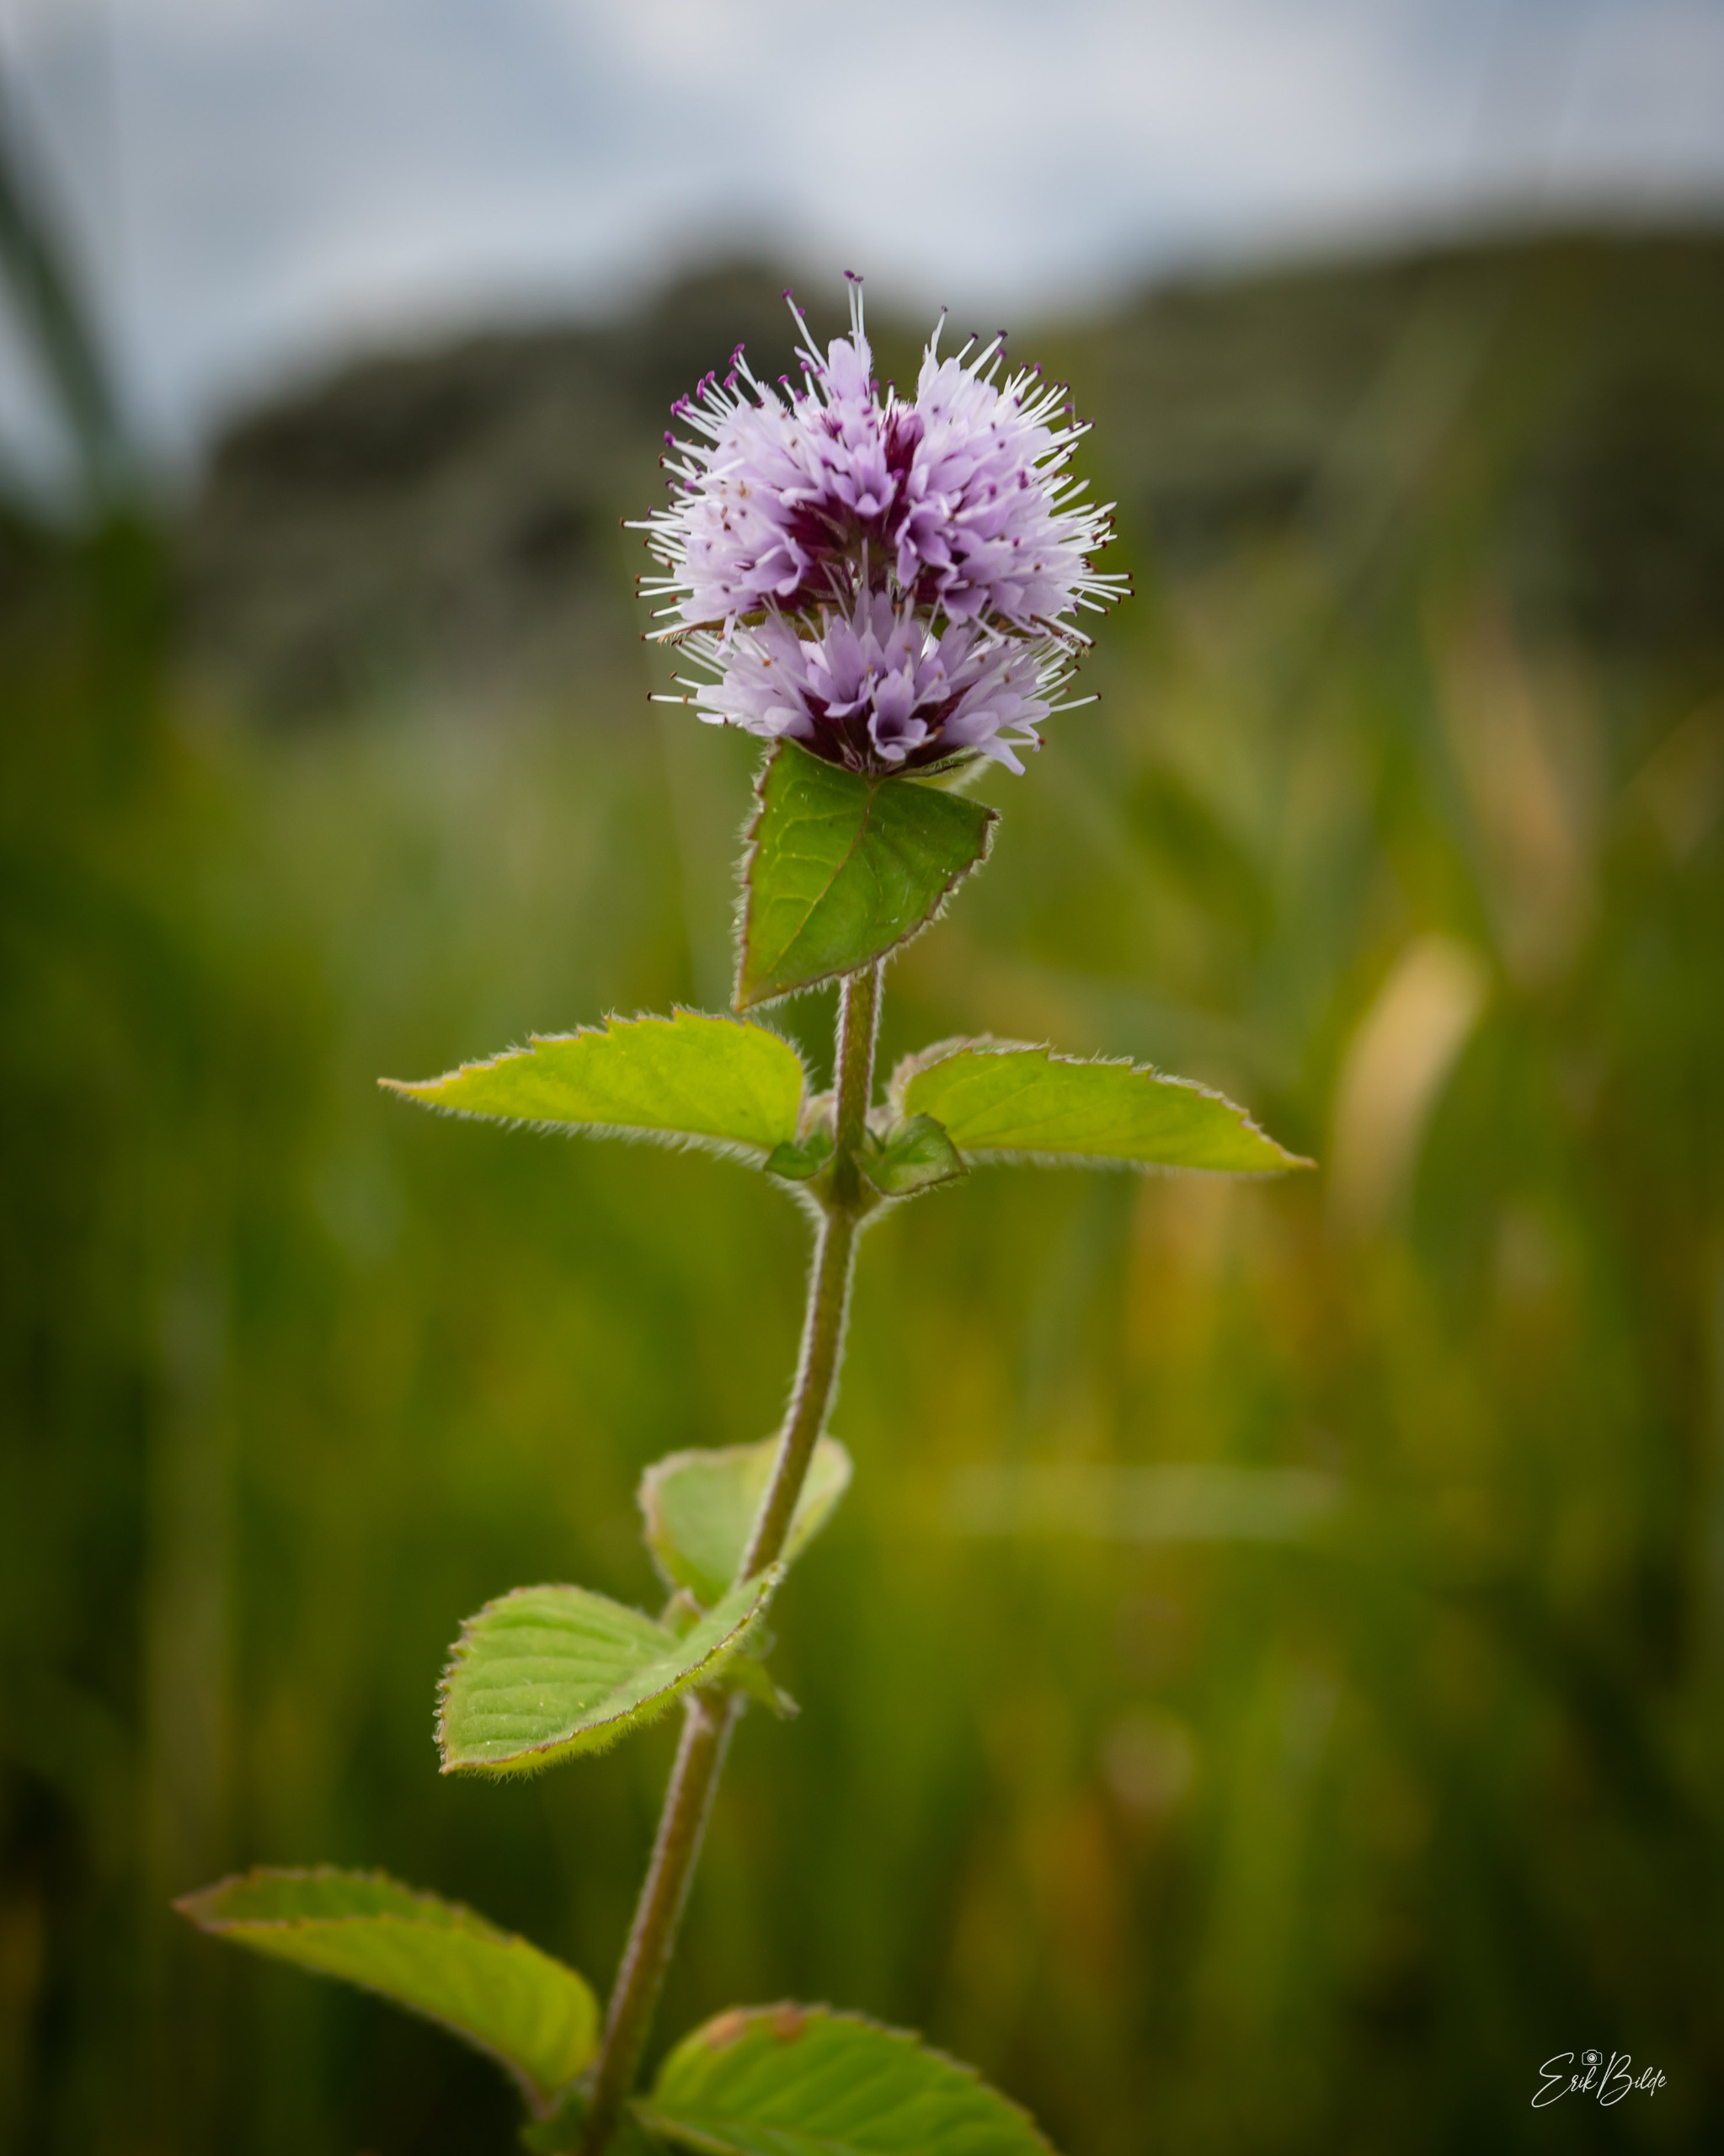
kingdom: Plantae
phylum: Tracheophyta
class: Magnoliopsida
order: Lamiales
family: Lamiaceae
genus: Mentha
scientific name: Mentha aquatica
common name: Vand-mynte
